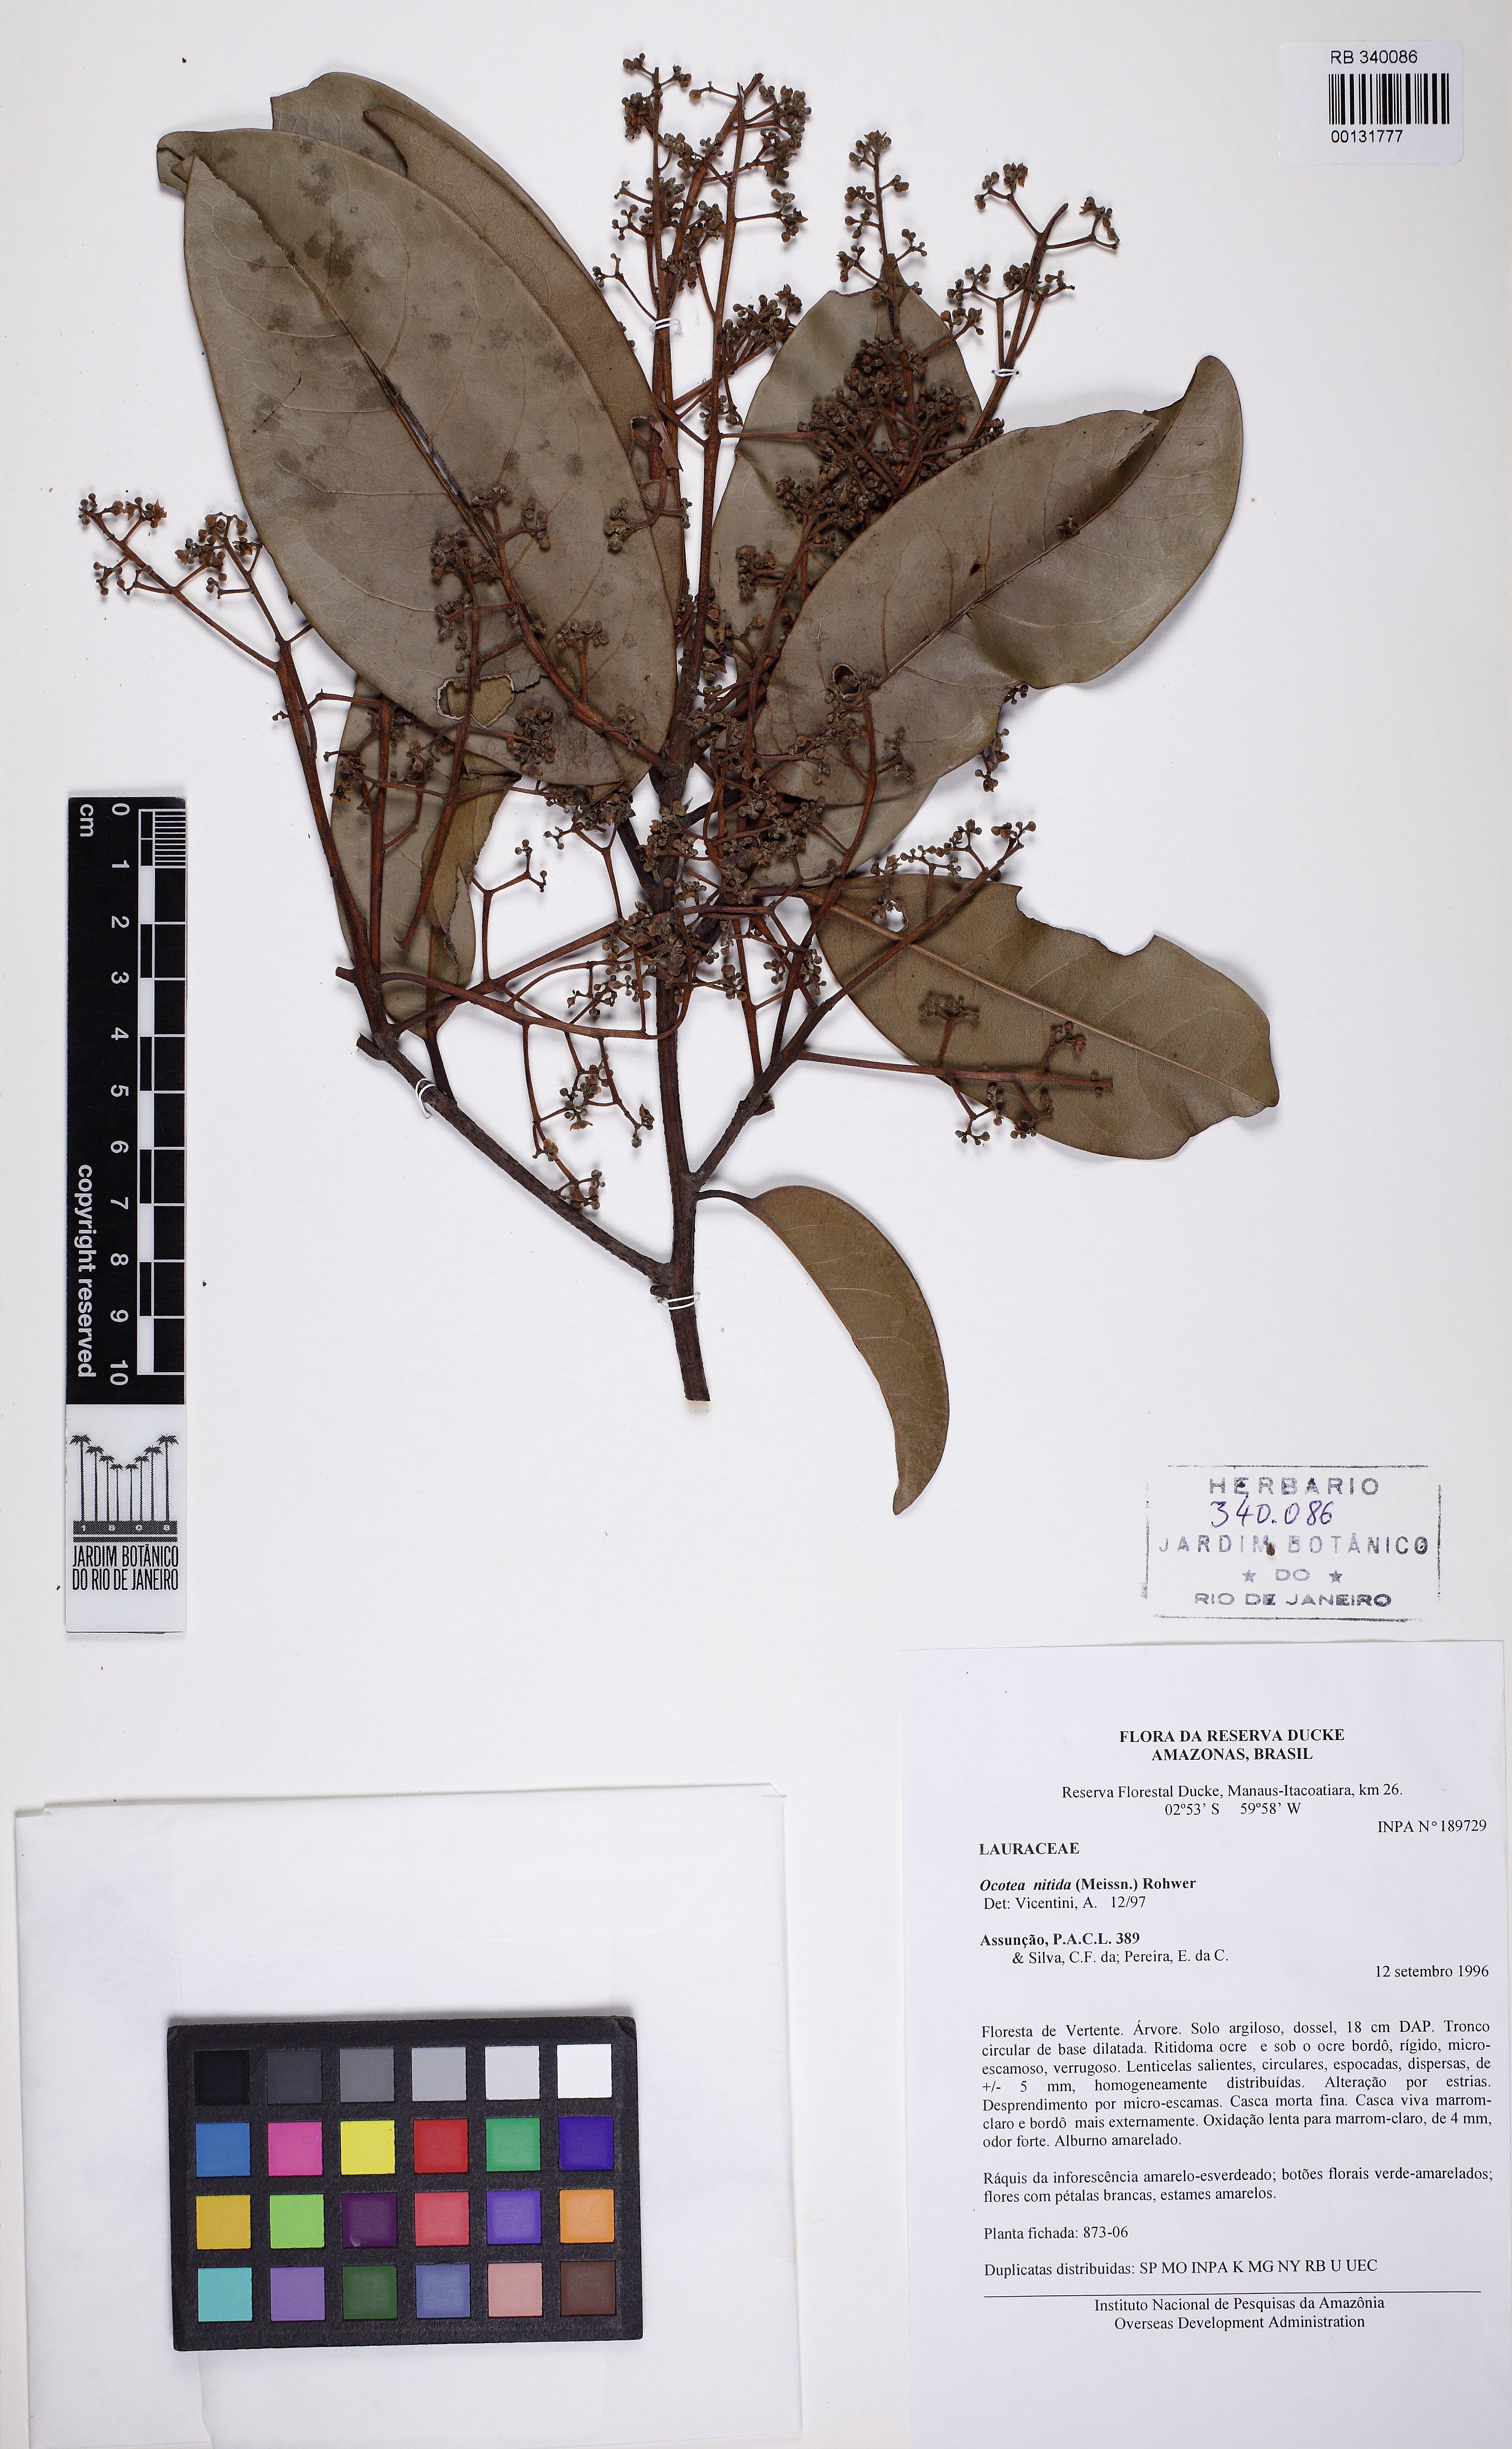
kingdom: Plantae
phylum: Tracheophyta
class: Magnoliopsida
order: Laurales
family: Lauraceae
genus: Ocotea
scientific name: Ocotea nitida
